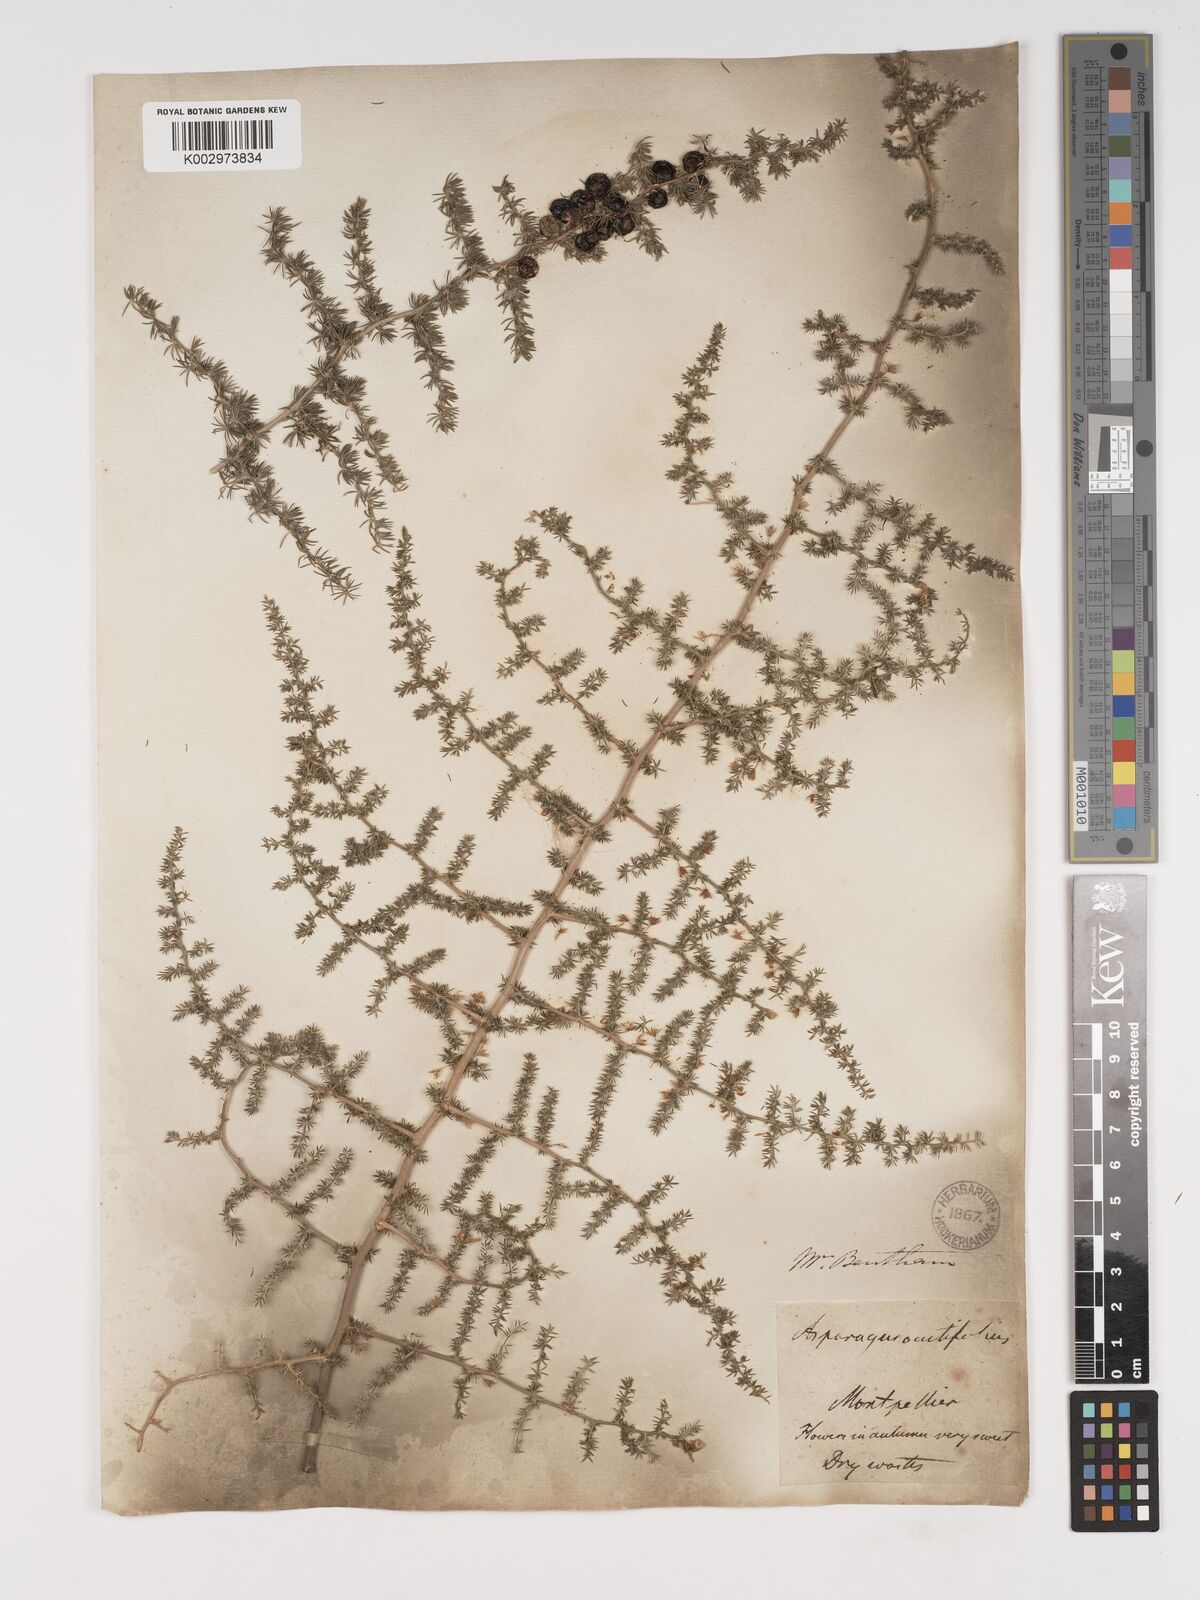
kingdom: Plantae
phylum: Tracheophyta
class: Liliopsida
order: Asparagales
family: Asparagaceae
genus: Asparagus
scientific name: Asparagus aethiopicus
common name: Sprenger's asparagus fern
